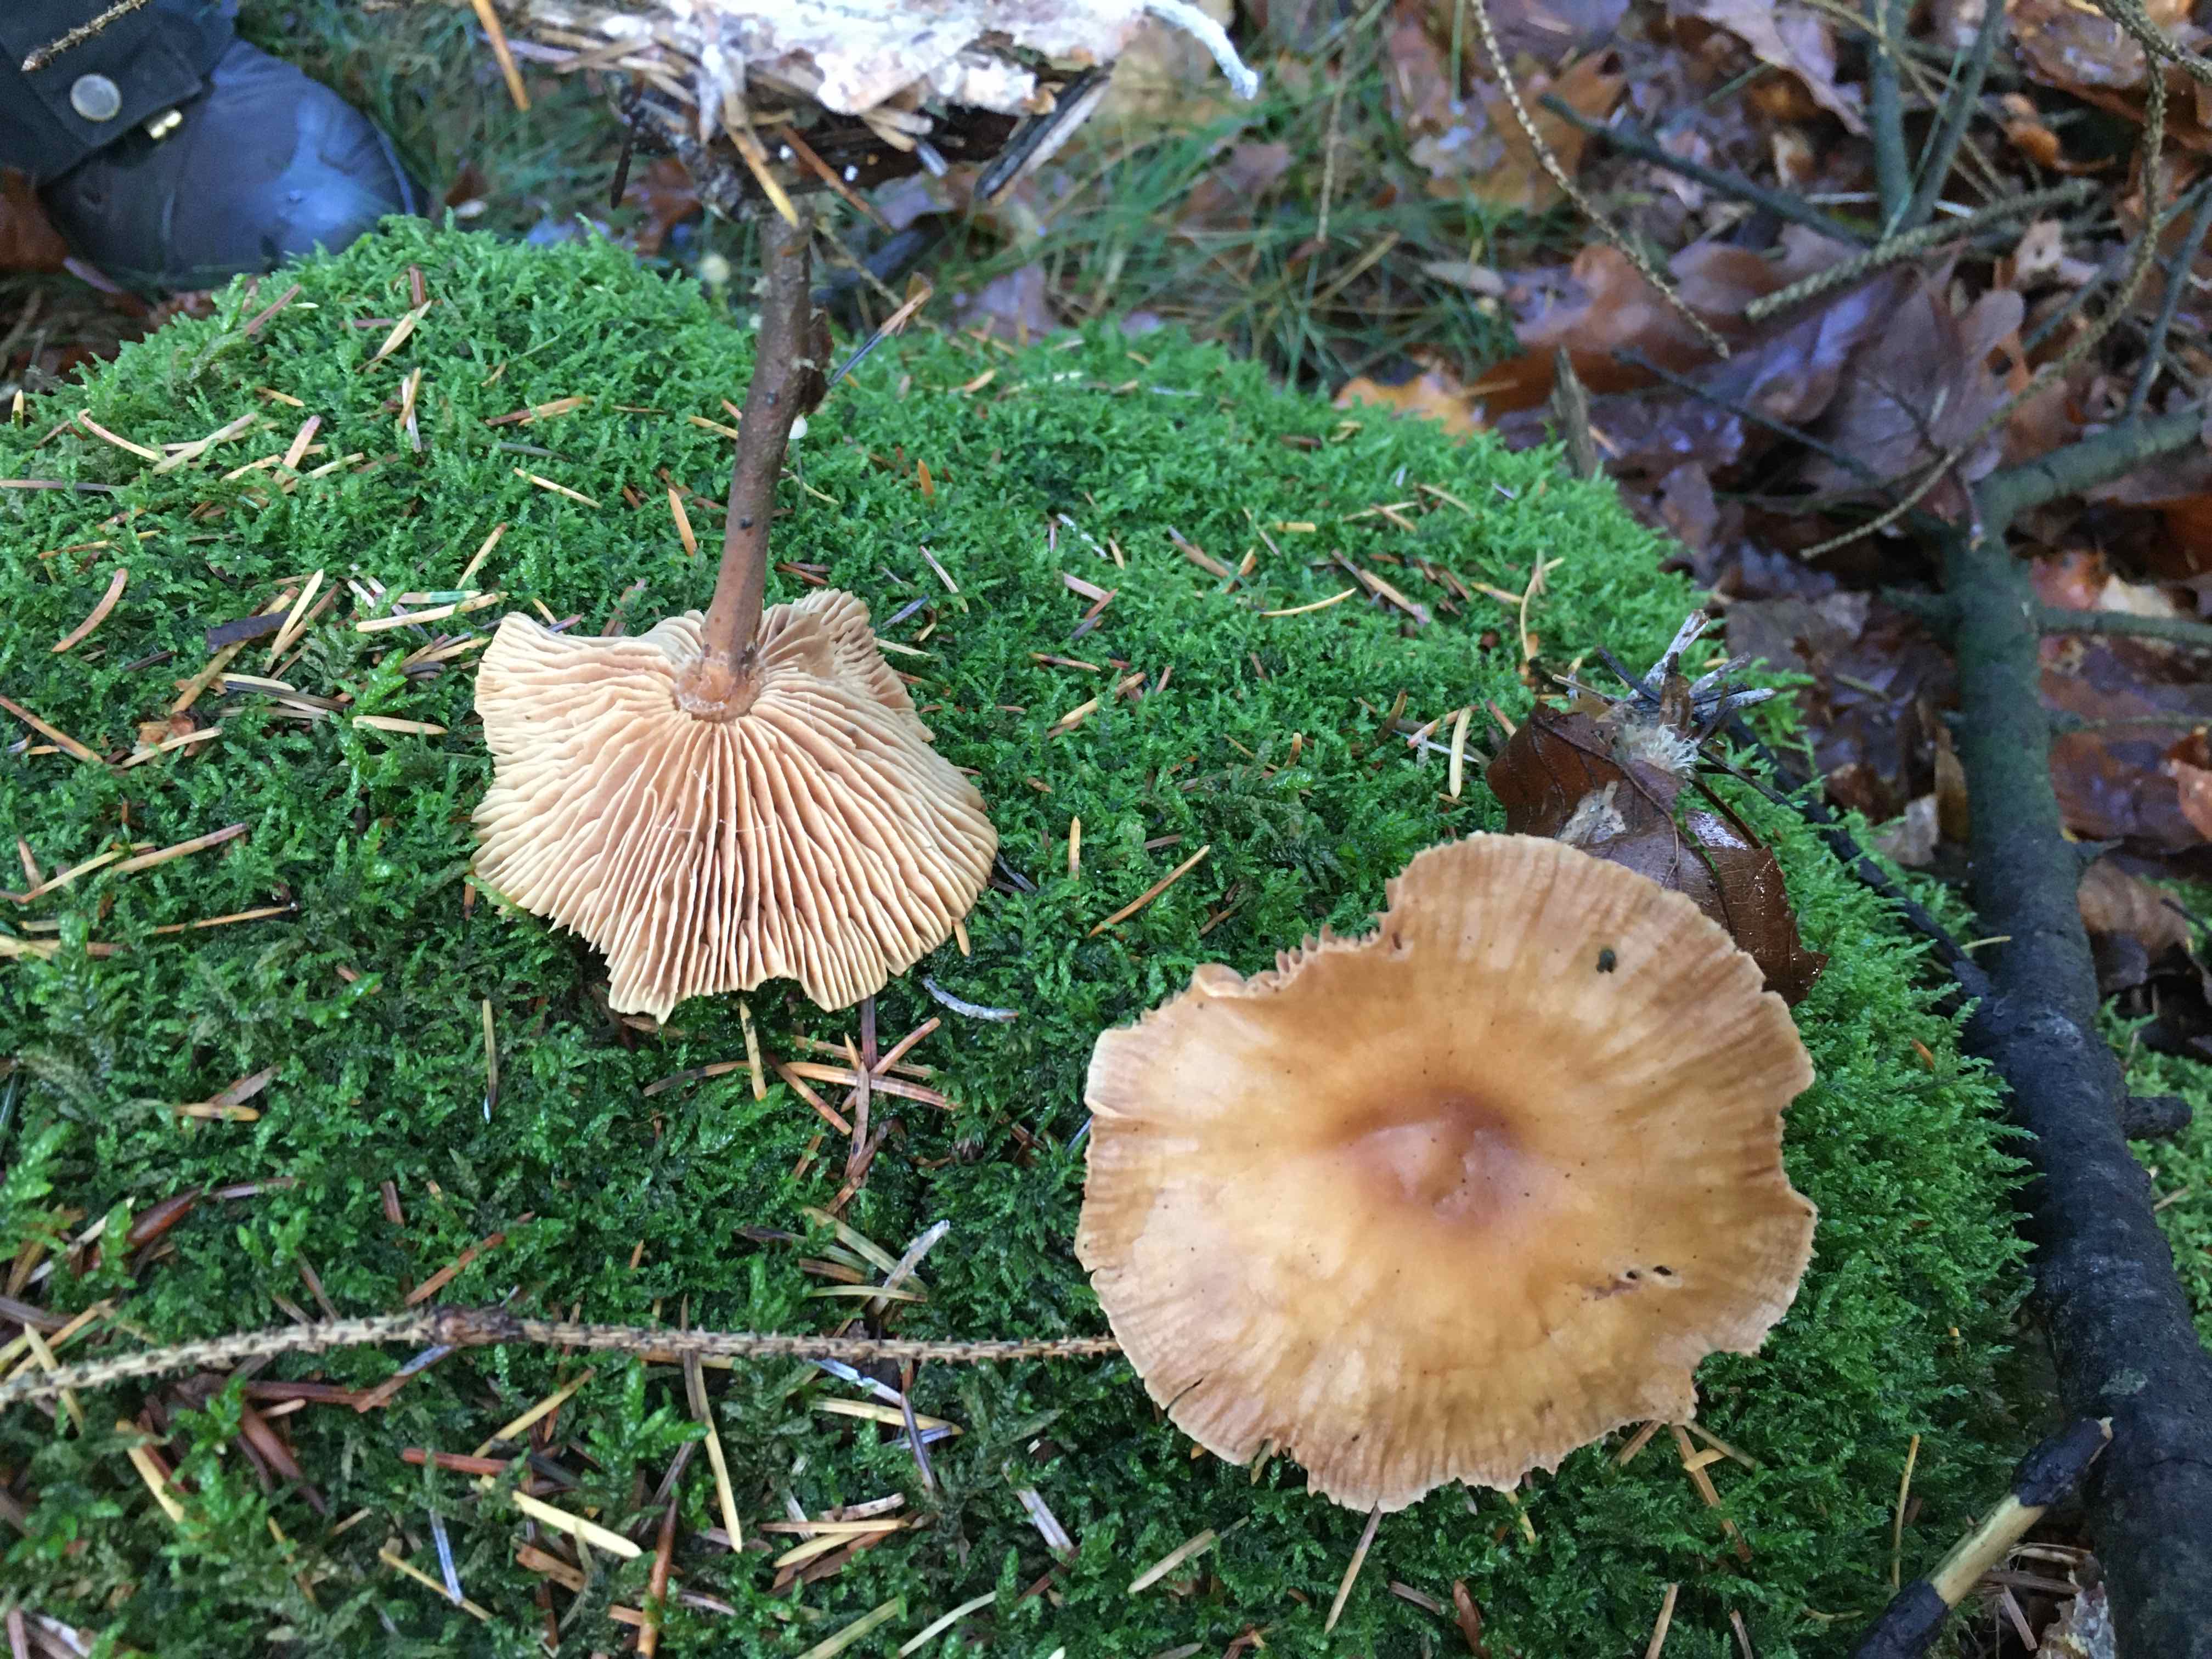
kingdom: Fungi
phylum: Basidiomycota
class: Agaricomycetes
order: Agaricales
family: Omphalotaceae
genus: Collybiopsis
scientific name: Collybiopsis peronata
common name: bestøvlet fladhat
